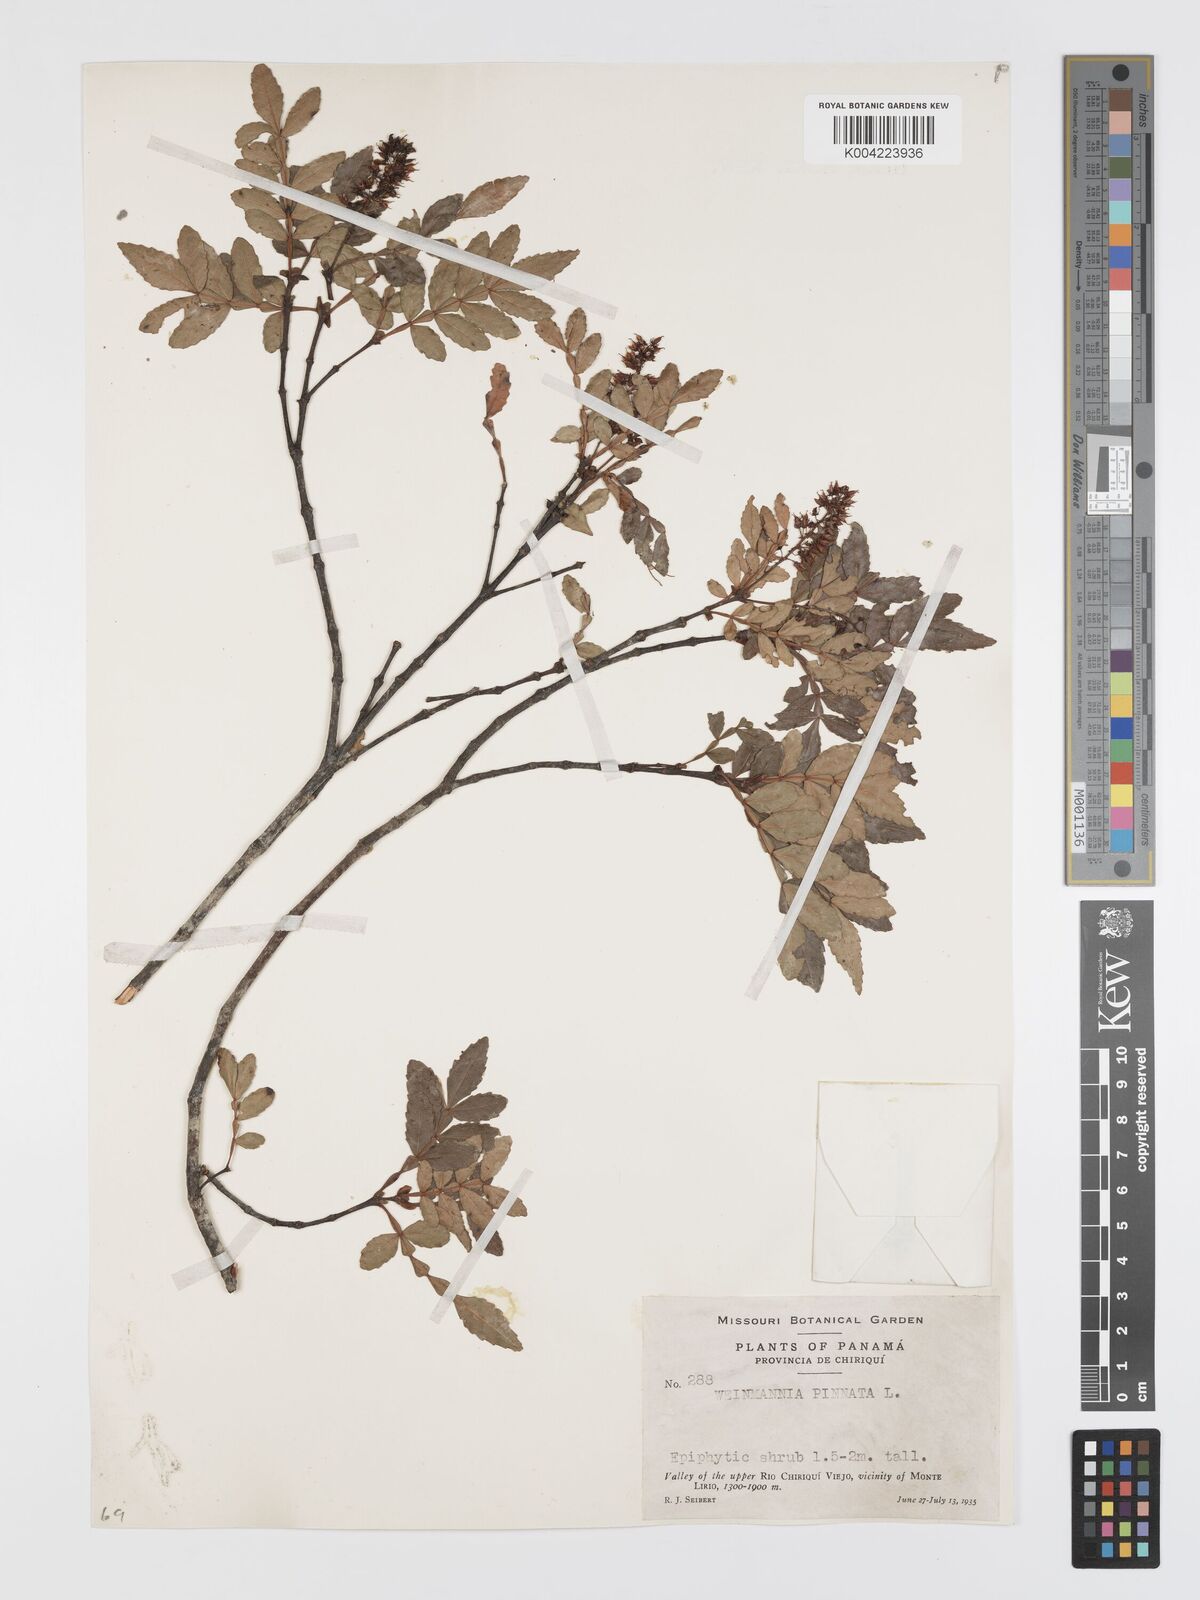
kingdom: Plantae
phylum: Tracheophyta
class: Magnoliopsida
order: Oxalidales
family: Cunoniaceae
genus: Weinmannia
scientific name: Weinmannia pinnata
